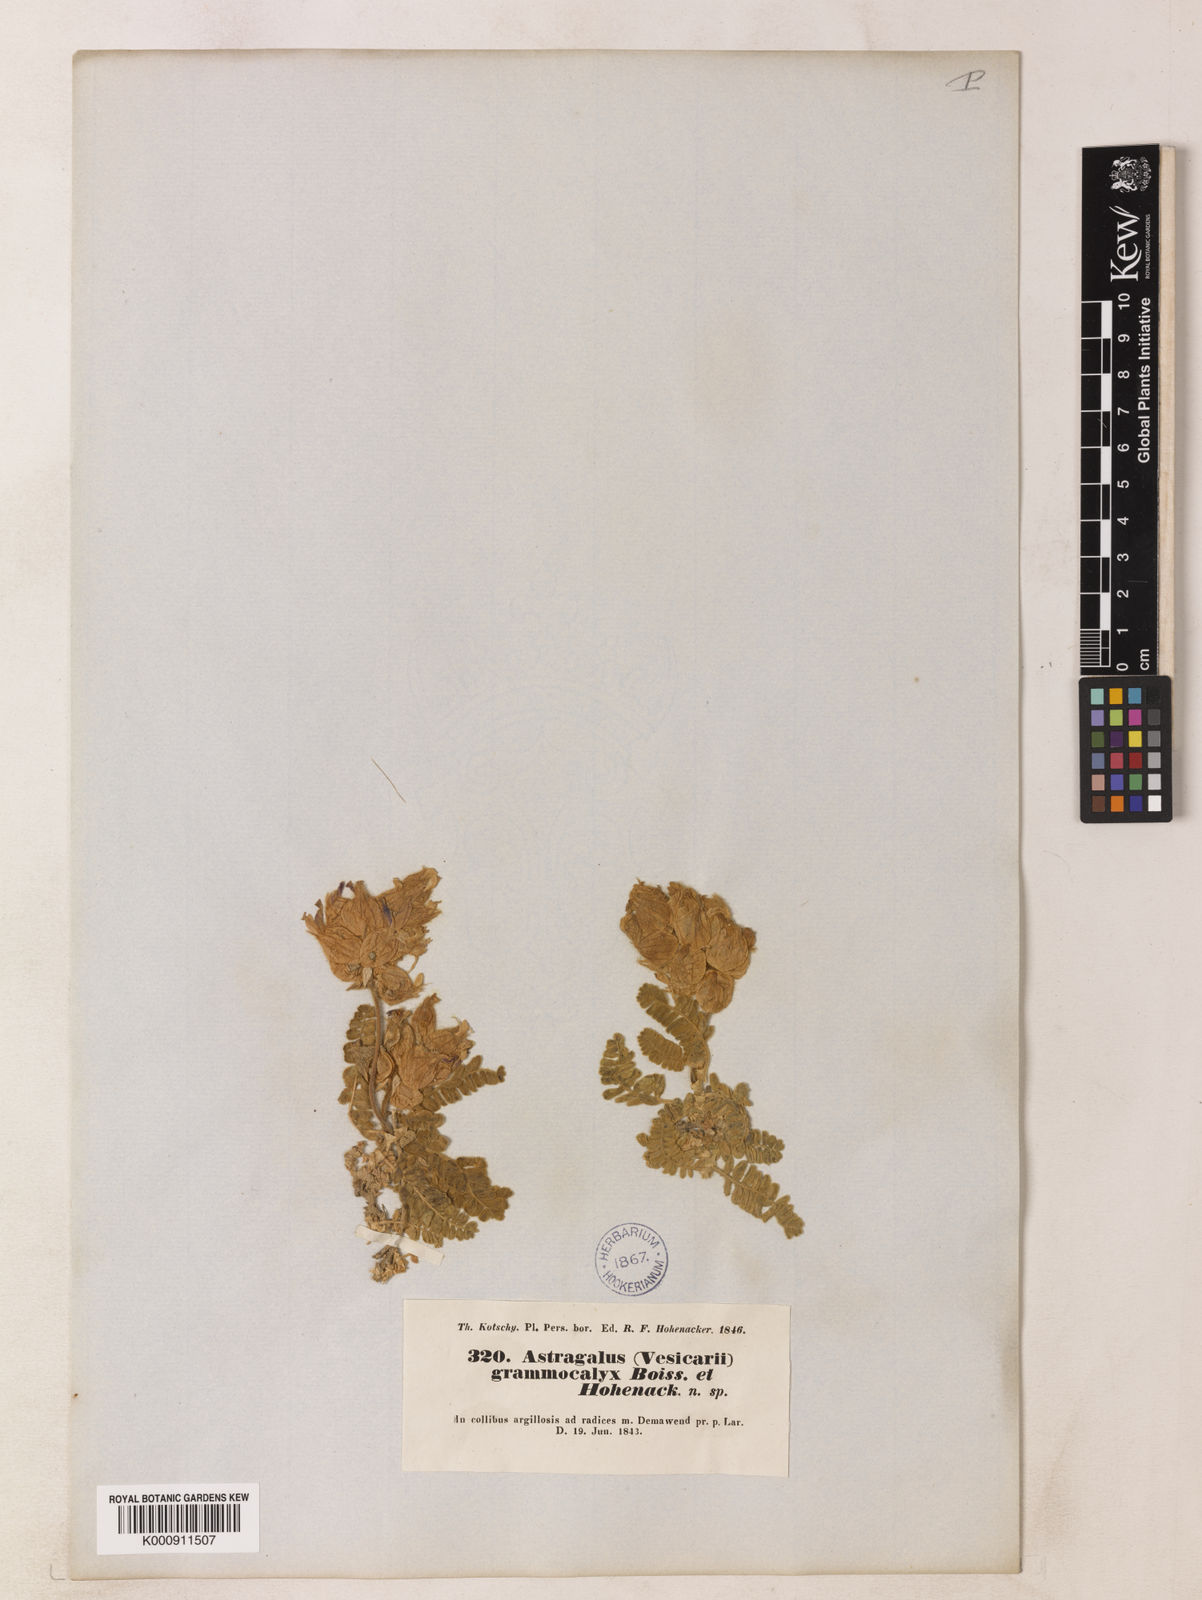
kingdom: Plantae
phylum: Tracheophyta
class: Magnoliopsida
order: Fabales
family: Fabaceae
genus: Astragalus
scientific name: Astragalus lineatus
